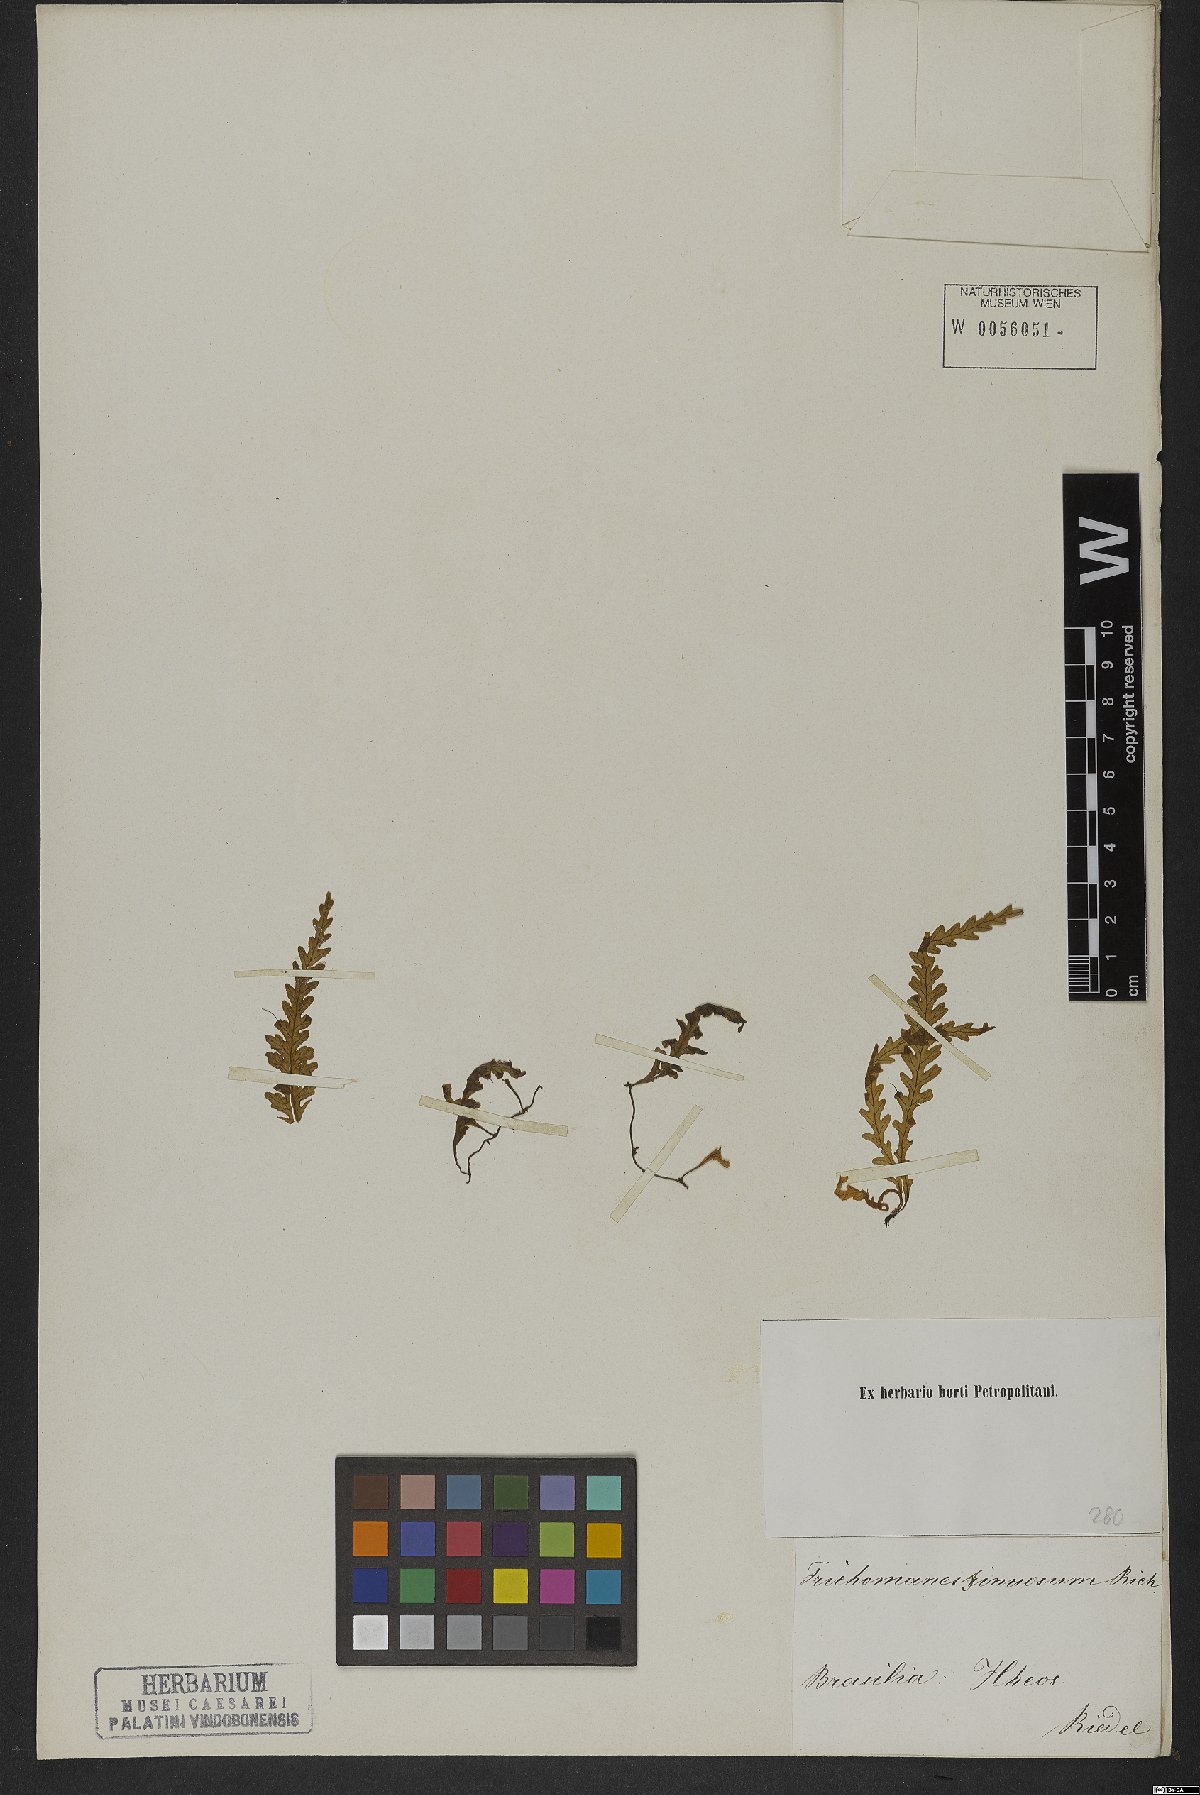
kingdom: Plantae
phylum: Tracheophyta
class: Polypodiopsida
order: Hymenophyllales
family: Hymenophyllaceae
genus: Trichomanes
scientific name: Trichomanes polypodioides
